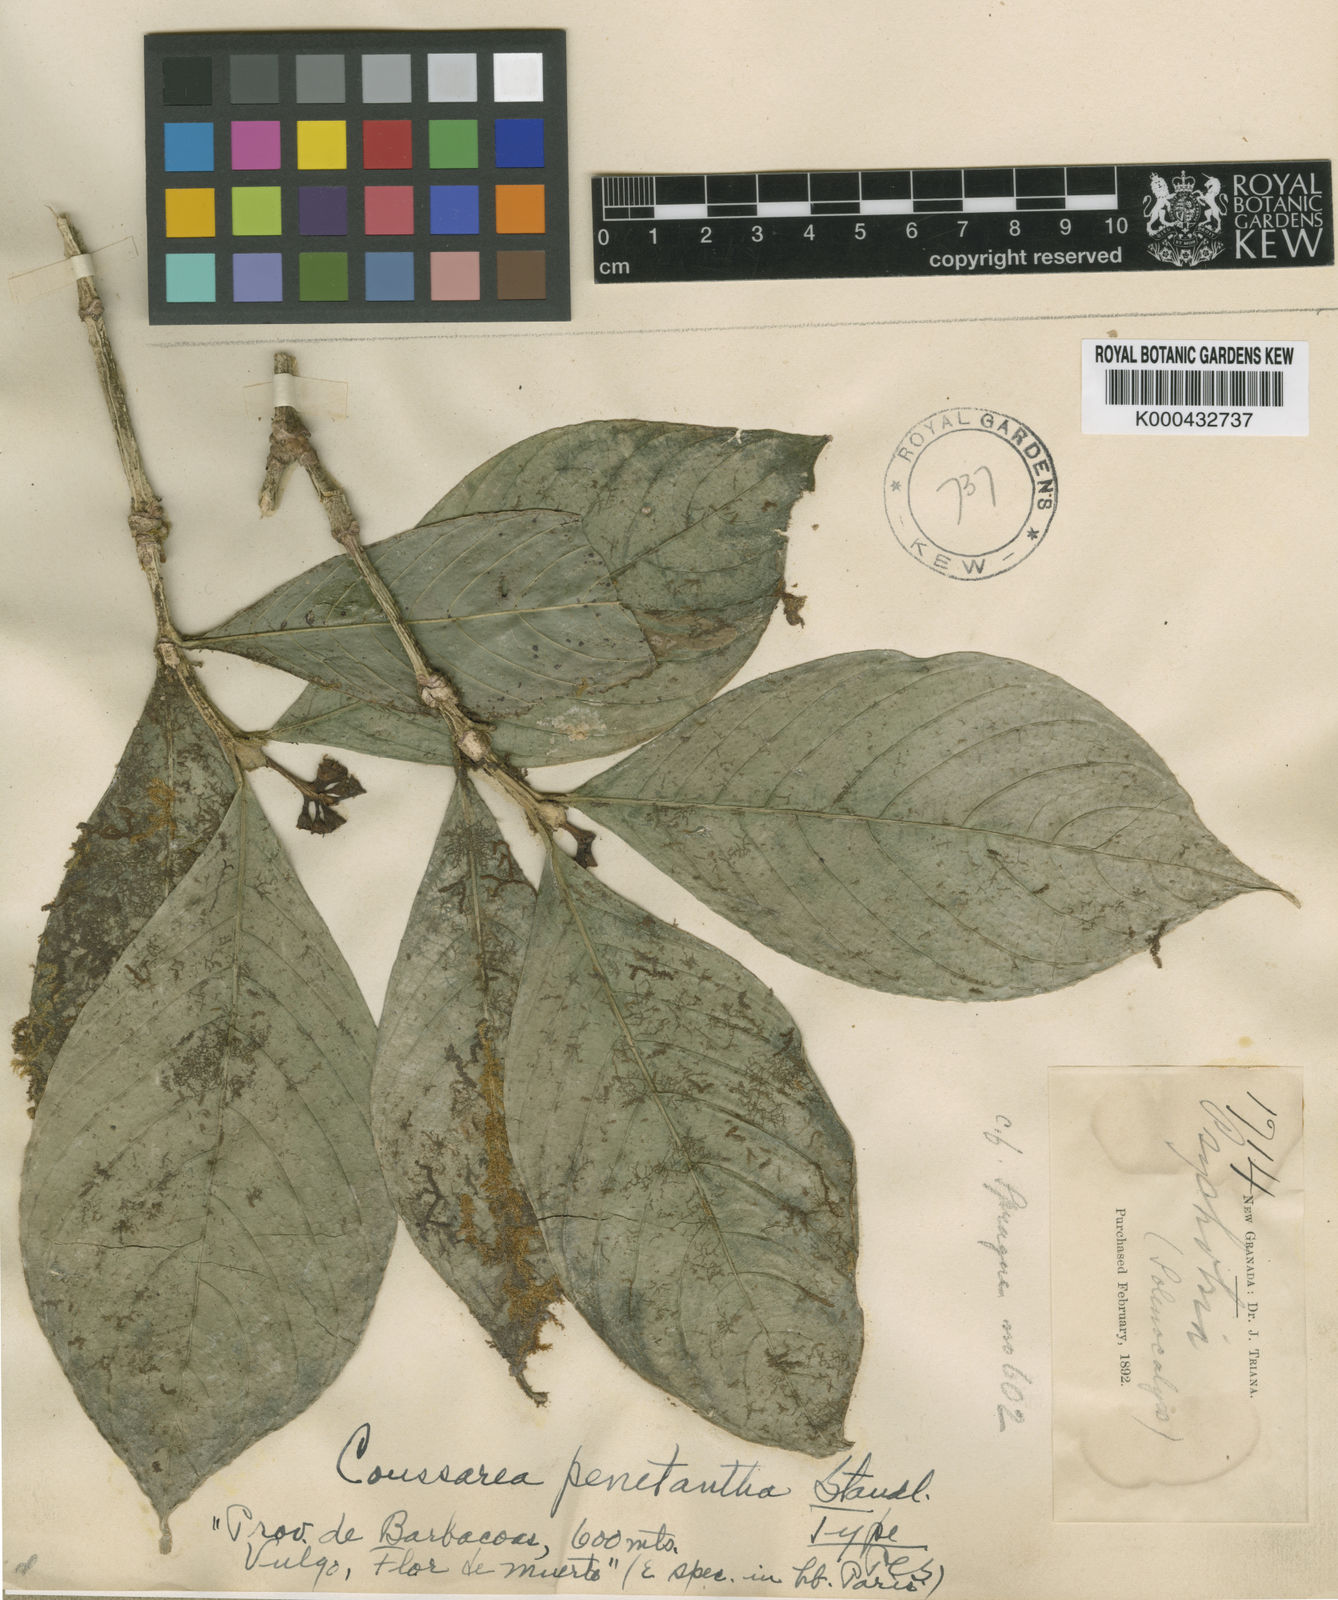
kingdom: Plantae
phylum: Tracheophyta
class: Magnoliopsida
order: Gentianales
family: Rubiaceae
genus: Coussarea
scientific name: Coussarea penetantha
